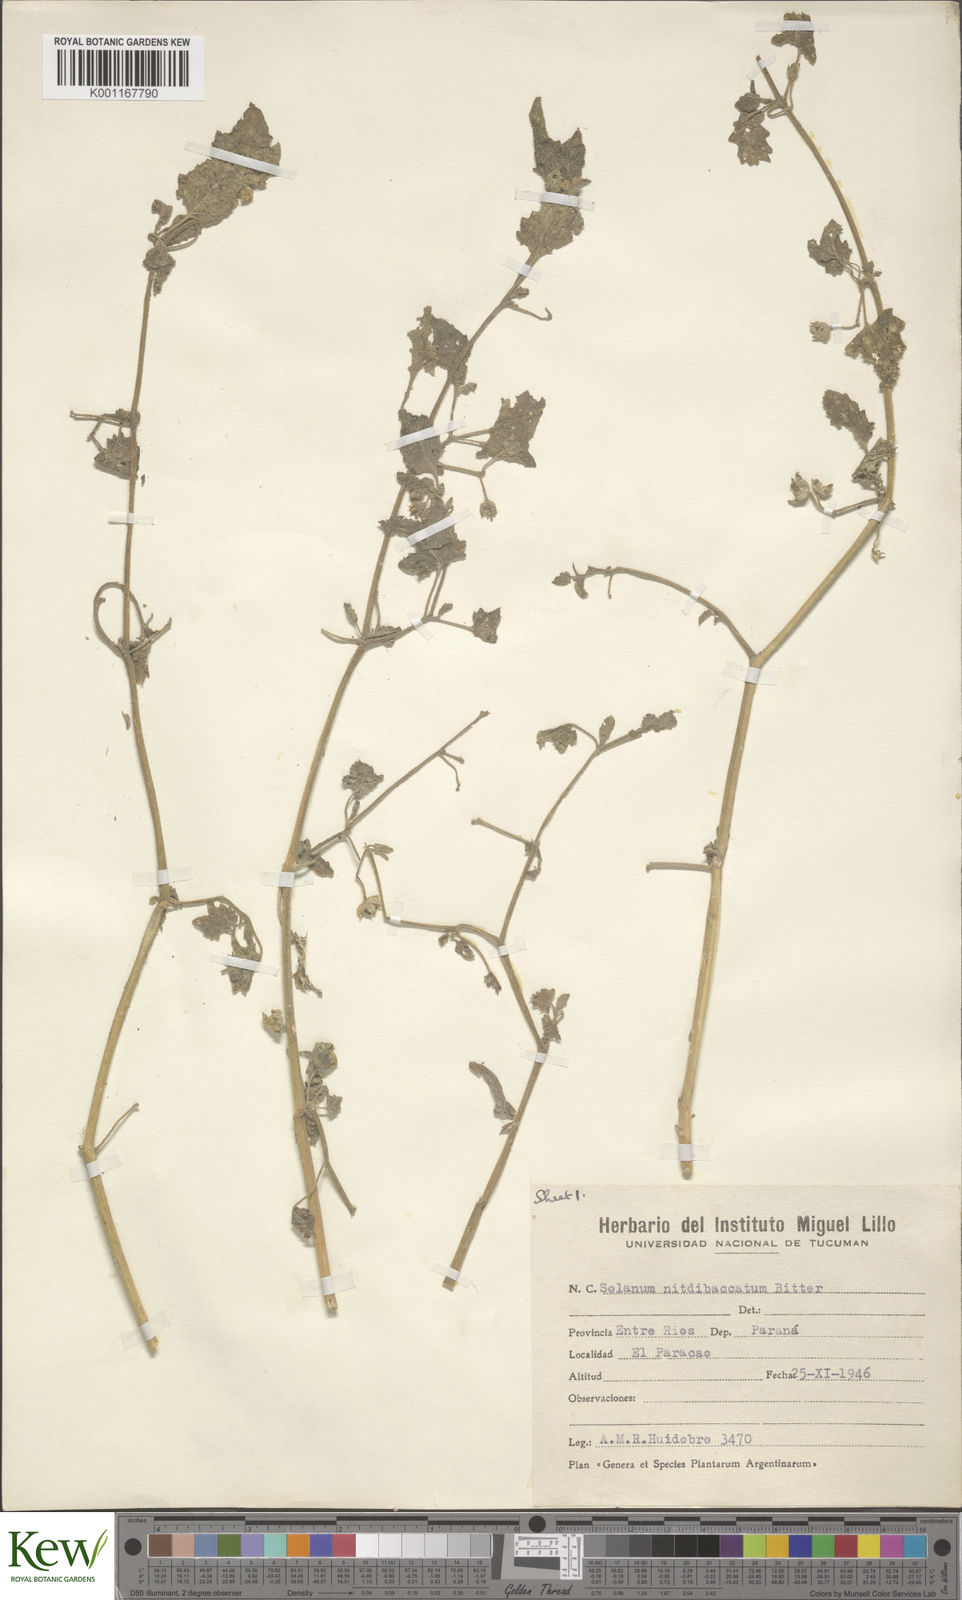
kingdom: Plantae
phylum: Tracheophyta
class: Magnoliopsida
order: Solanales
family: Solanaceae
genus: Solanum
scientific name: Solanum tweedieanum
